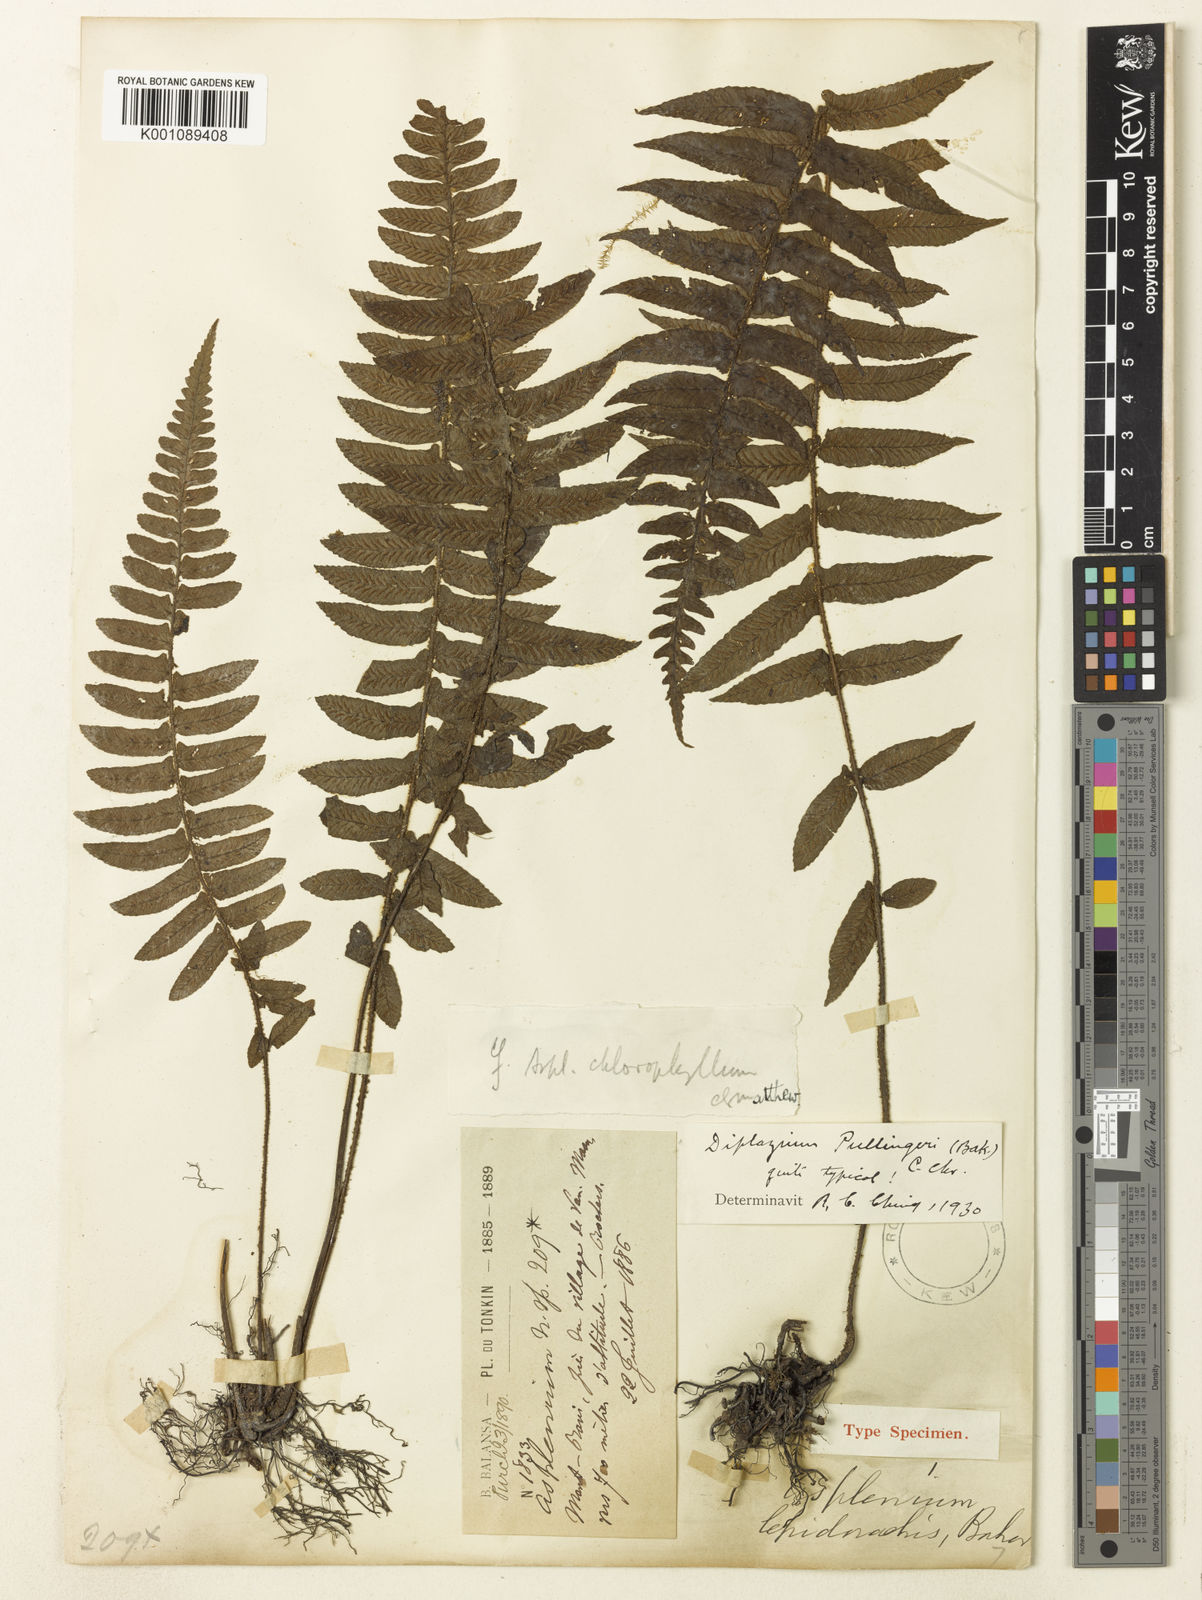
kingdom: Plantae
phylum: Tracheophyta
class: Polypodiopsida
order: Polypodiales
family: Athyriaceae
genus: Diplazium
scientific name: Diplazium pullingeri
